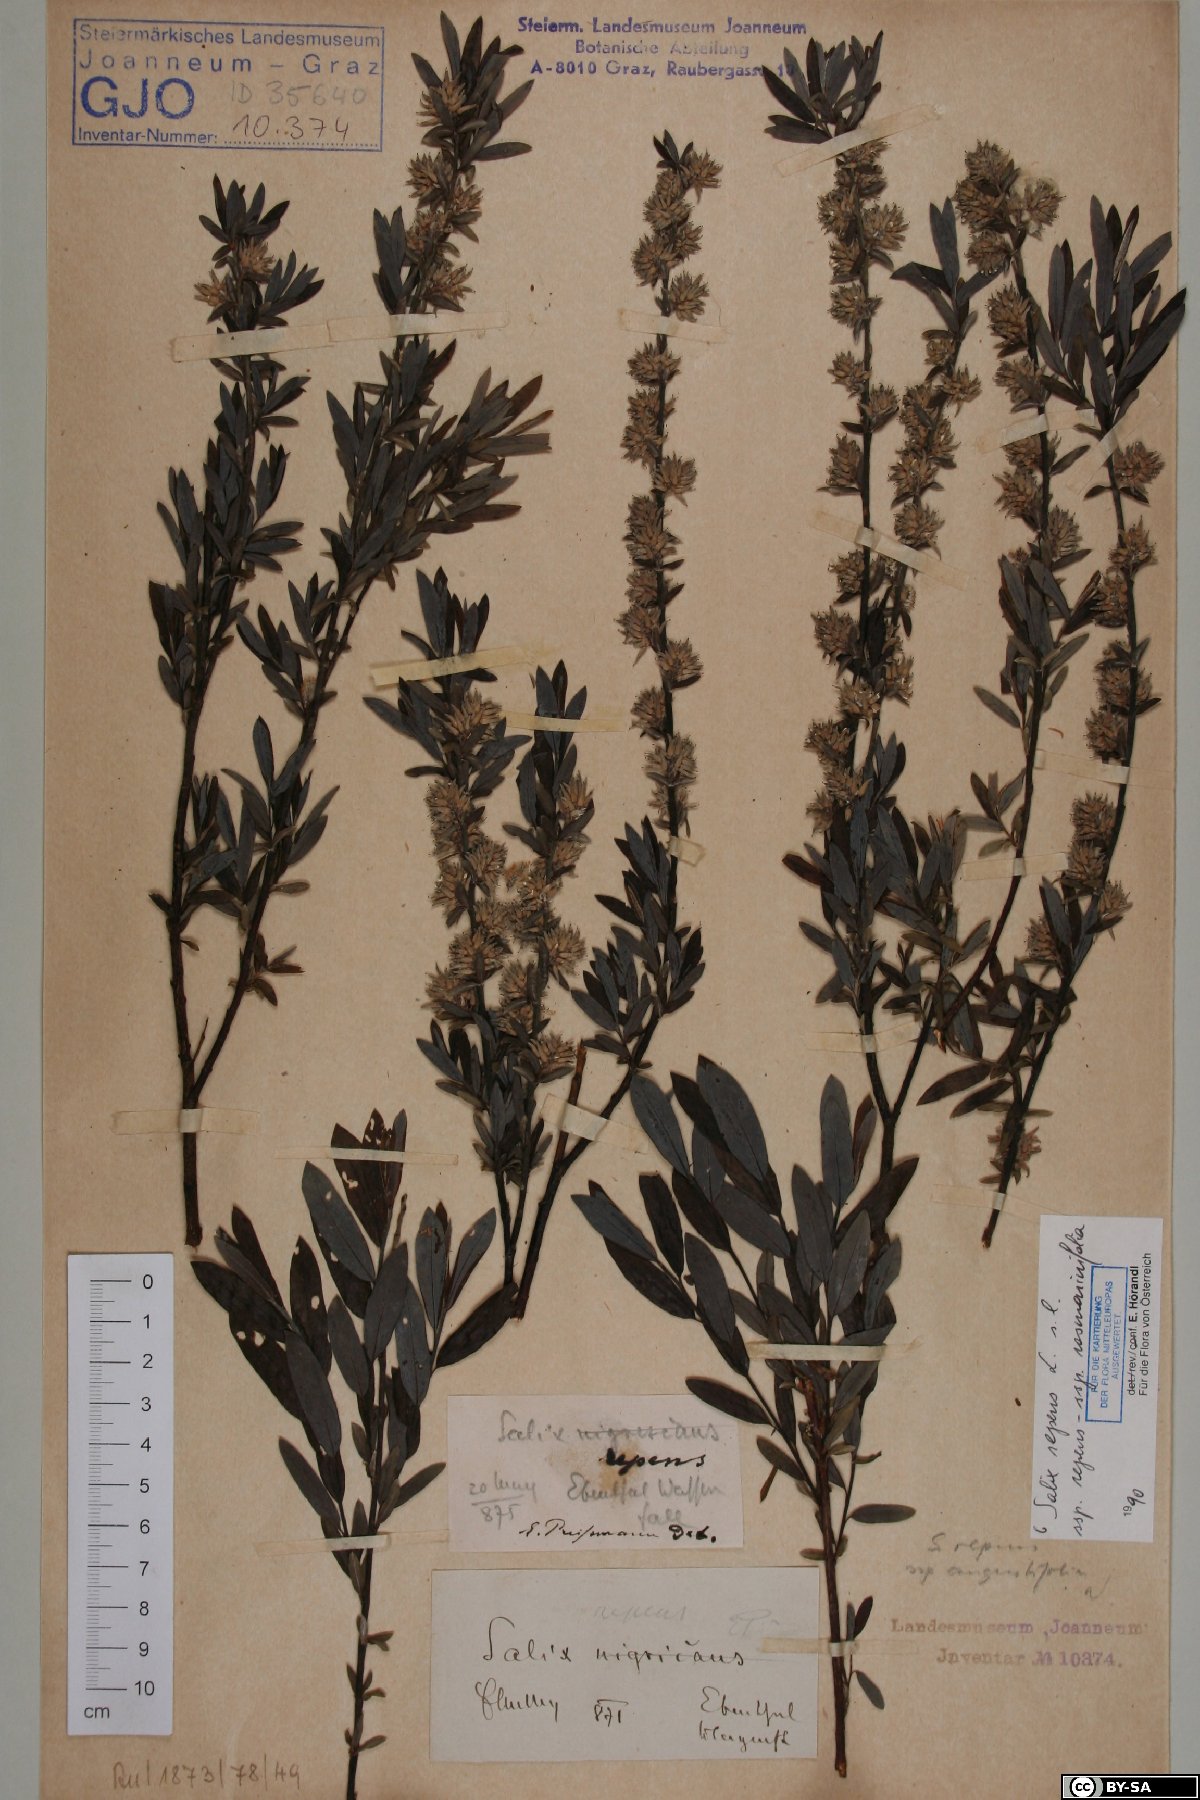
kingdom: Plantae
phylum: Tracheophyta
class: Magnoliopsida
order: Malpighiales
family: Salicaceae
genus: Salix
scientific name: Salix repens
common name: Creeping willow
